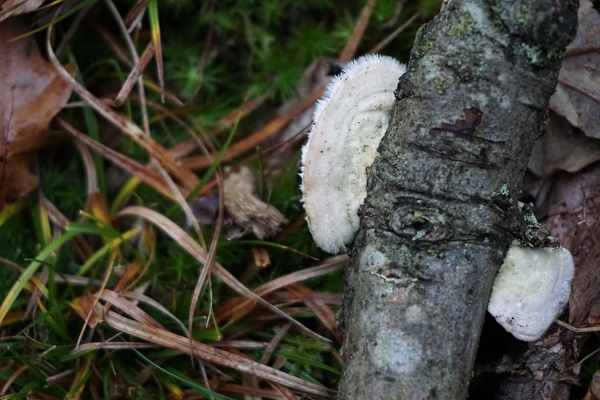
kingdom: Fungi
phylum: Basidiomycota
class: Agaricomycetes
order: Polyporales
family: Polyporaceae
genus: Trametes
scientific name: Trametes hirsuta
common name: håret læderporesvamp
